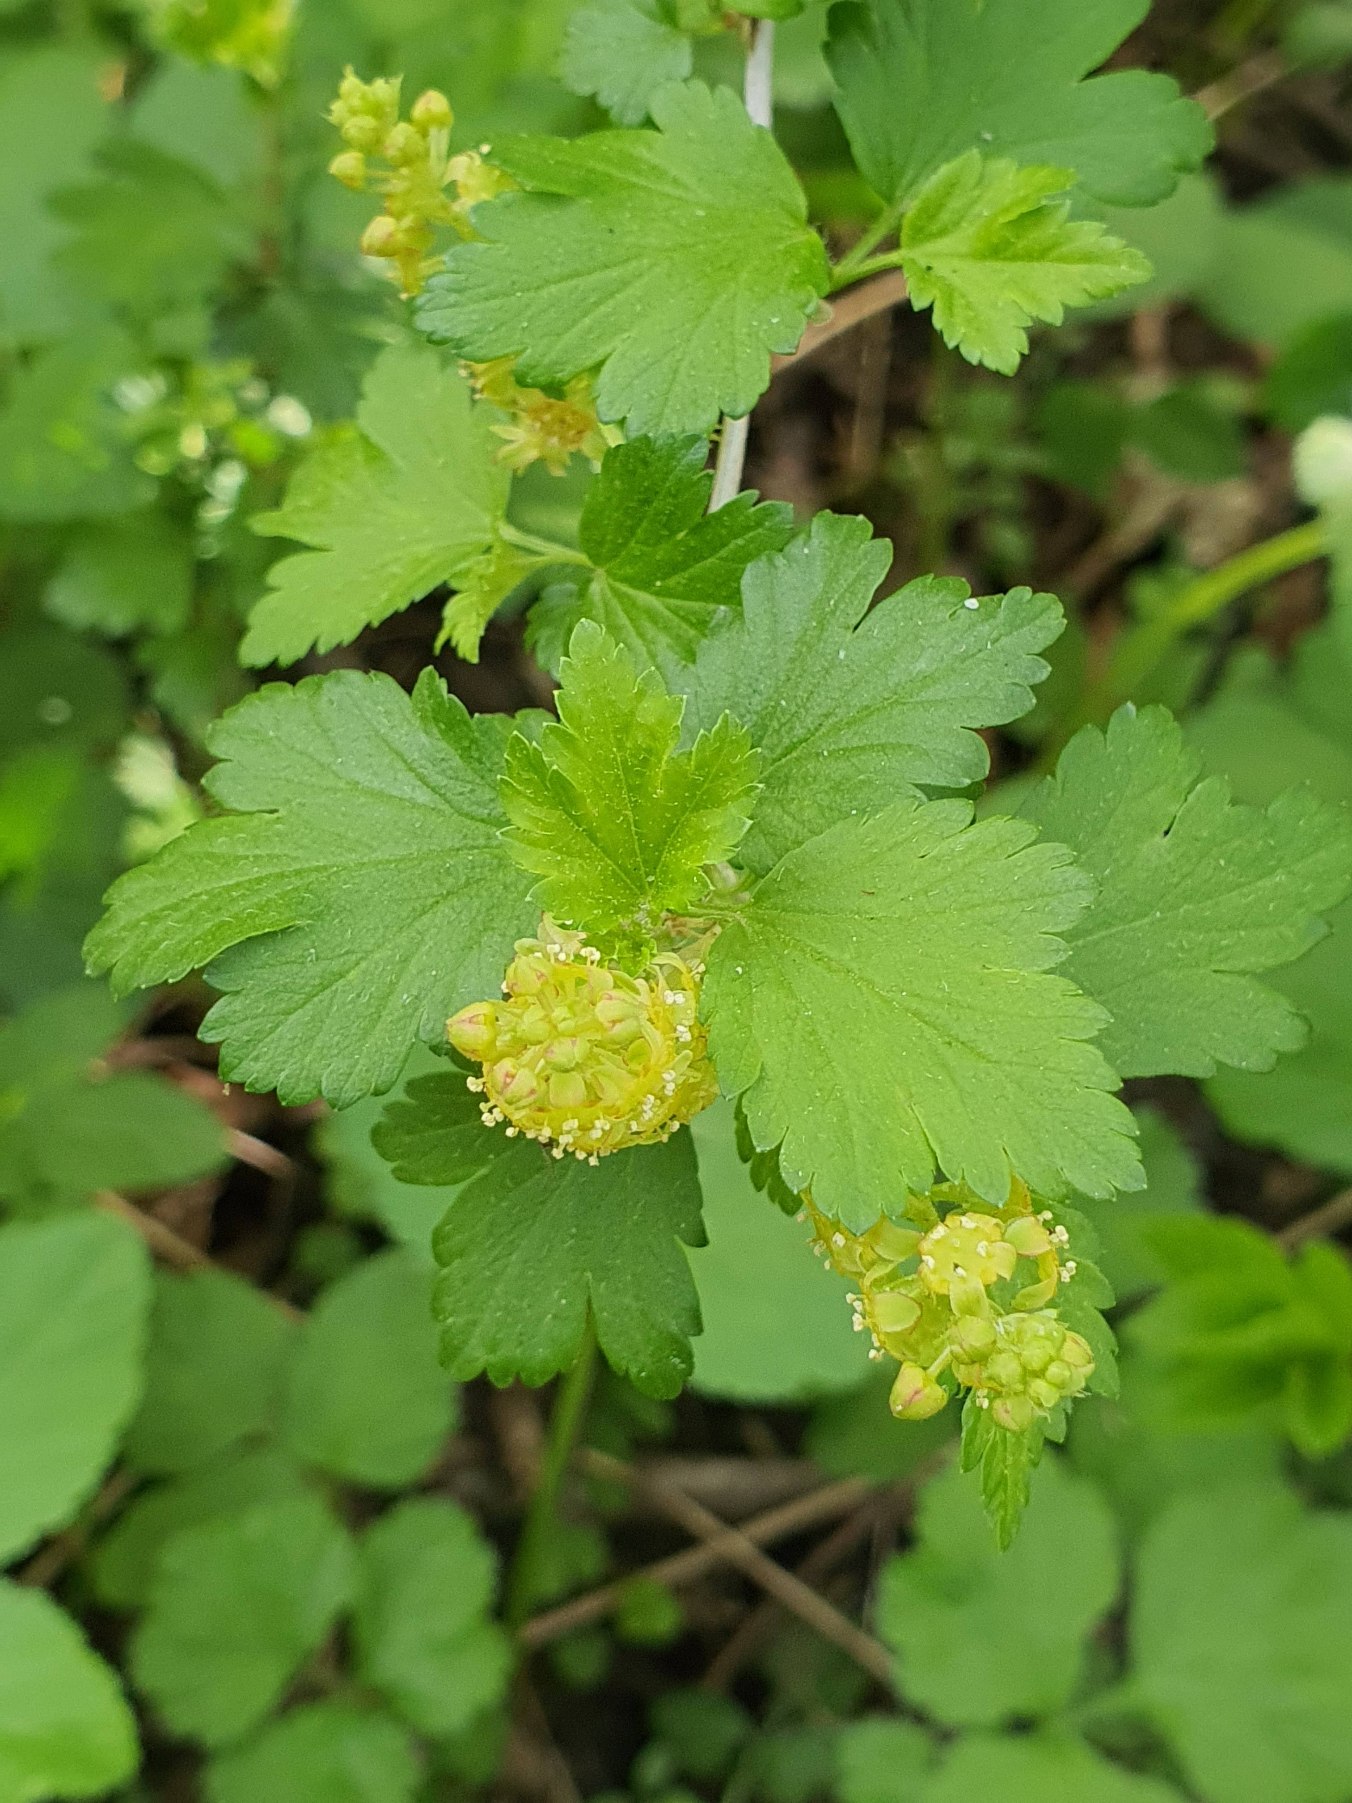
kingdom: Plantae
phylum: Tracheophyta
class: Magnoliopsida
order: Saxifragales
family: Grossulariaceae
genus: Ribes
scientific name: Ribes alpinum
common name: Fjeld-ribs
